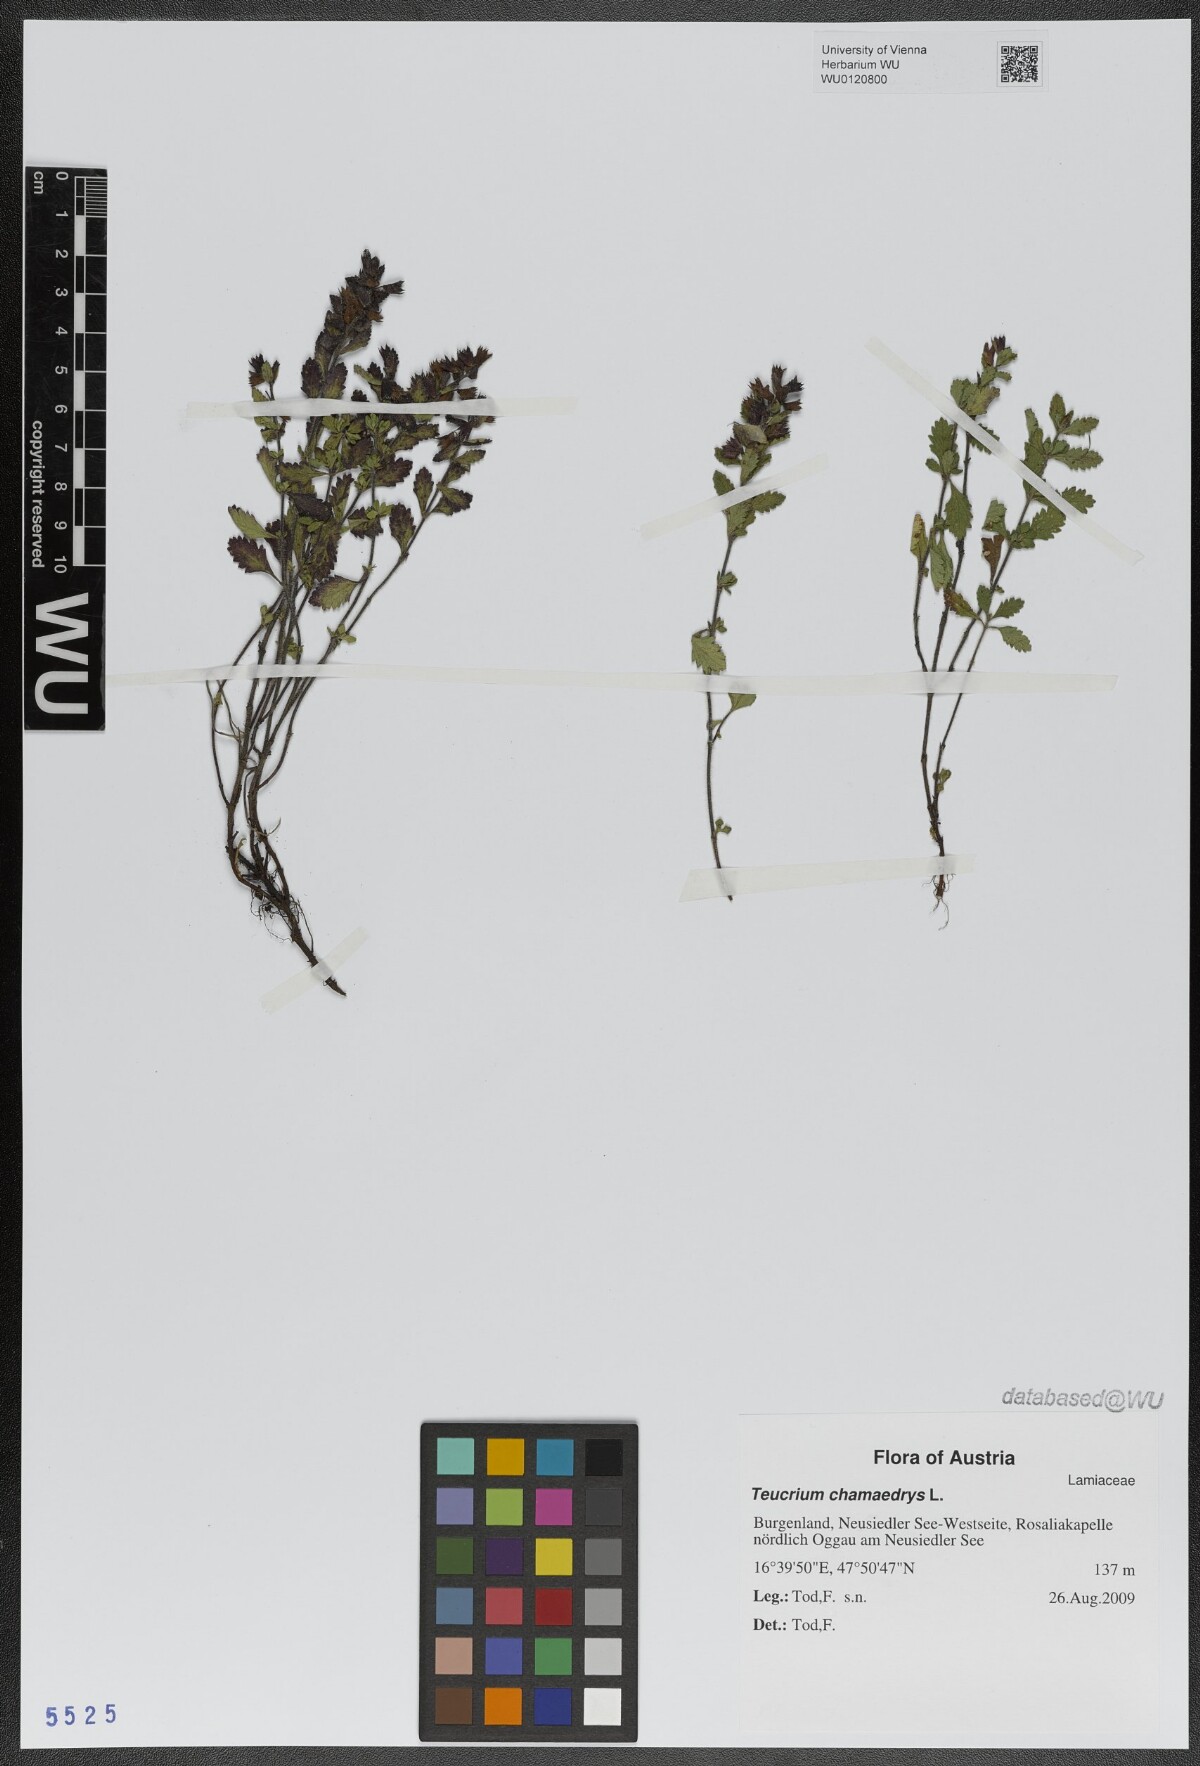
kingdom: Plantae
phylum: Tracheophyta
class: Magnoliopsida
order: Lamiales
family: Lamiaceae
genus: Teucrium
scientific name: Teucrium chamaedrys
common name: Wall germander
